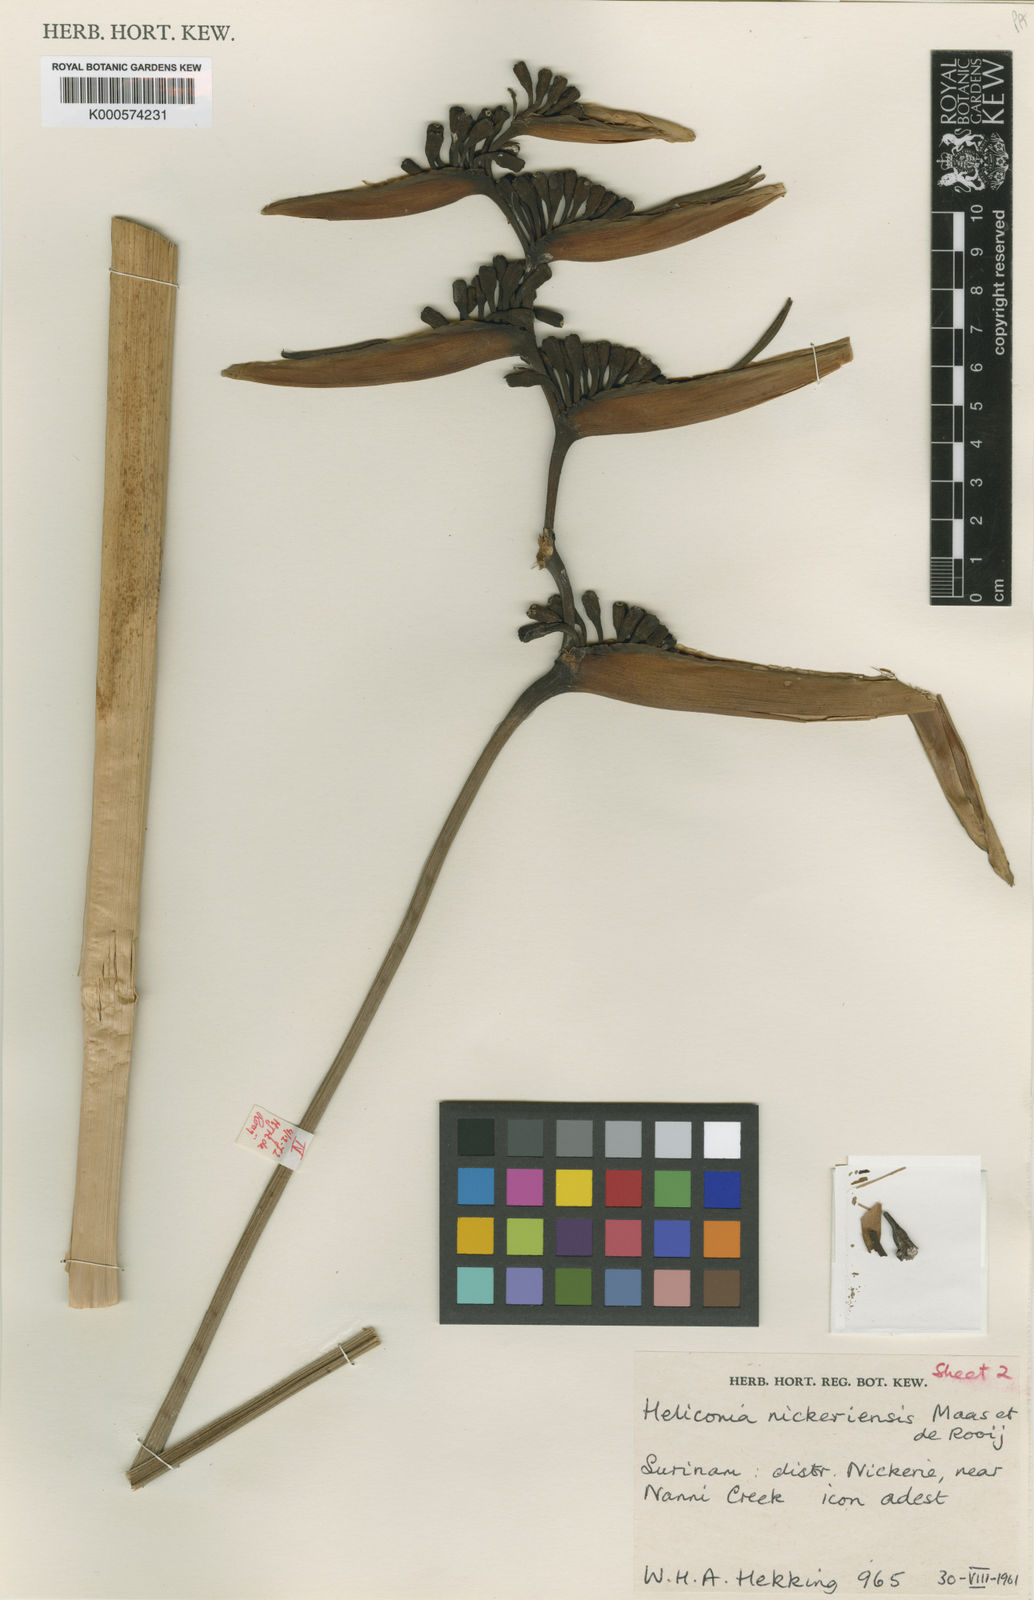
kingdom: Plantae
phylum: Tracheophyta
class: Liliopsida
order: Zingiberales
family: Heliconiaceae
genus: Heliconia
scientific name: Heliconia nickeriensis
